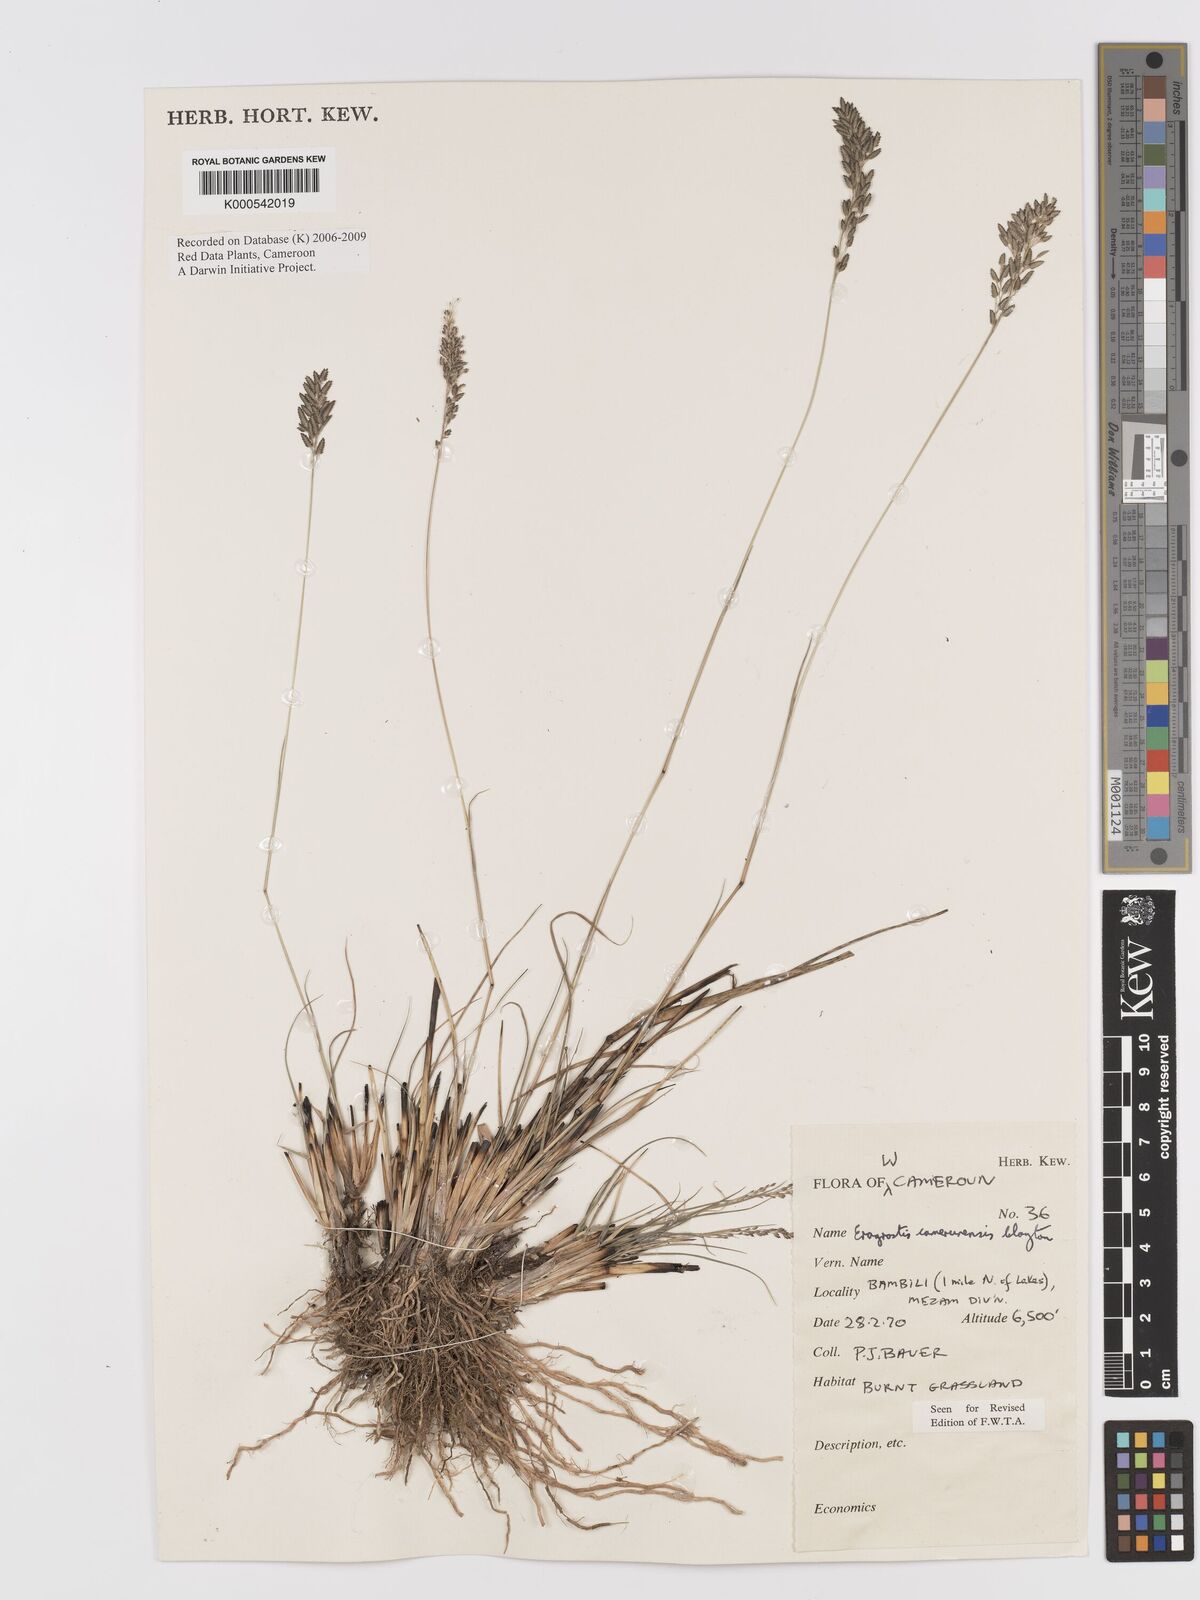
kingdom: Plantae
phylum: Tracheophyta
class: Liliopsida
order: Poales
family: Poaceae
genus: Eragrostis
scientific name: Eragrostis camerunensis
